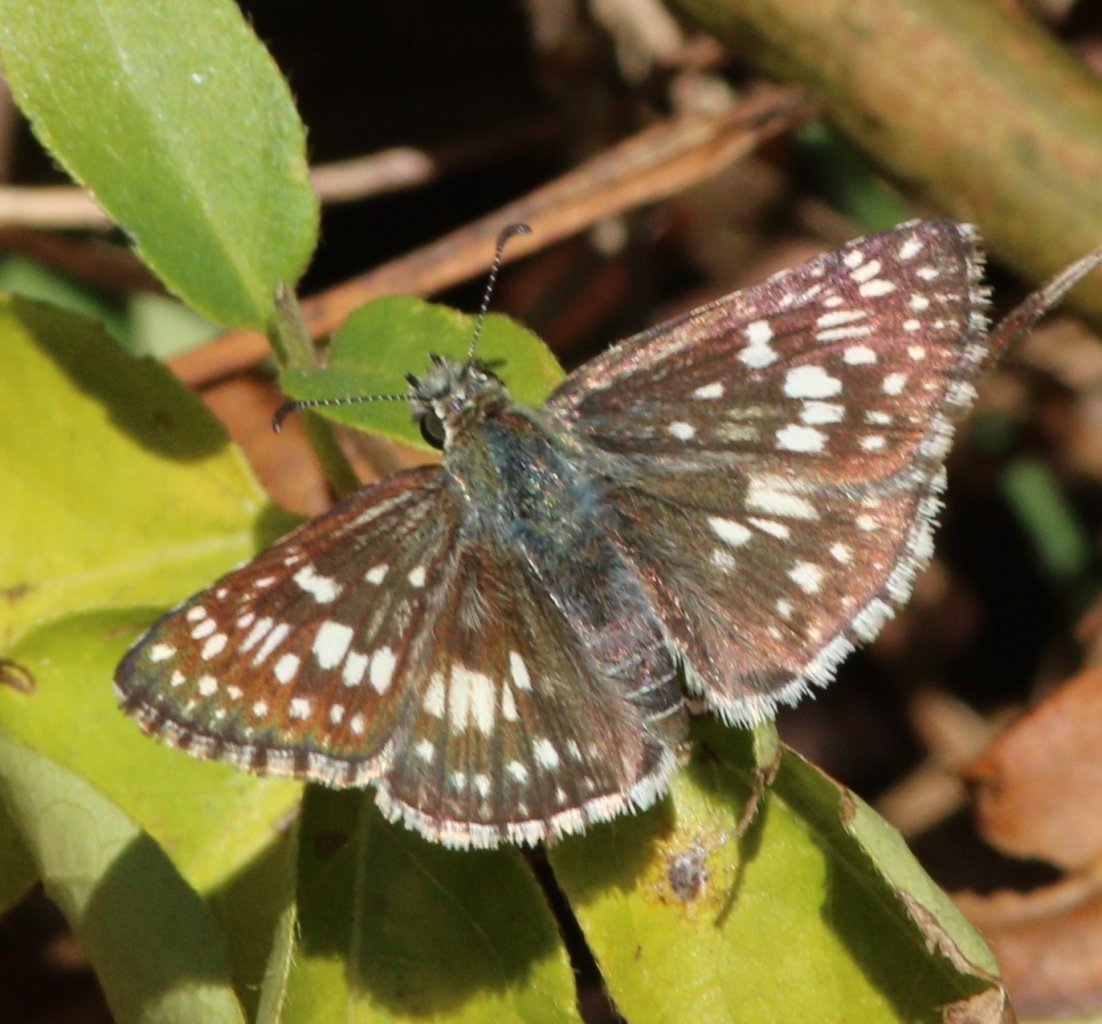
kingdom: Animalia
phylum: Arthropoda
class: Insecta
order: Lepidoptera
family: Hesperiidae
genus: Pyrgus
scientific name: Pyrgus communis
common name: Common Checkered-Skipper
